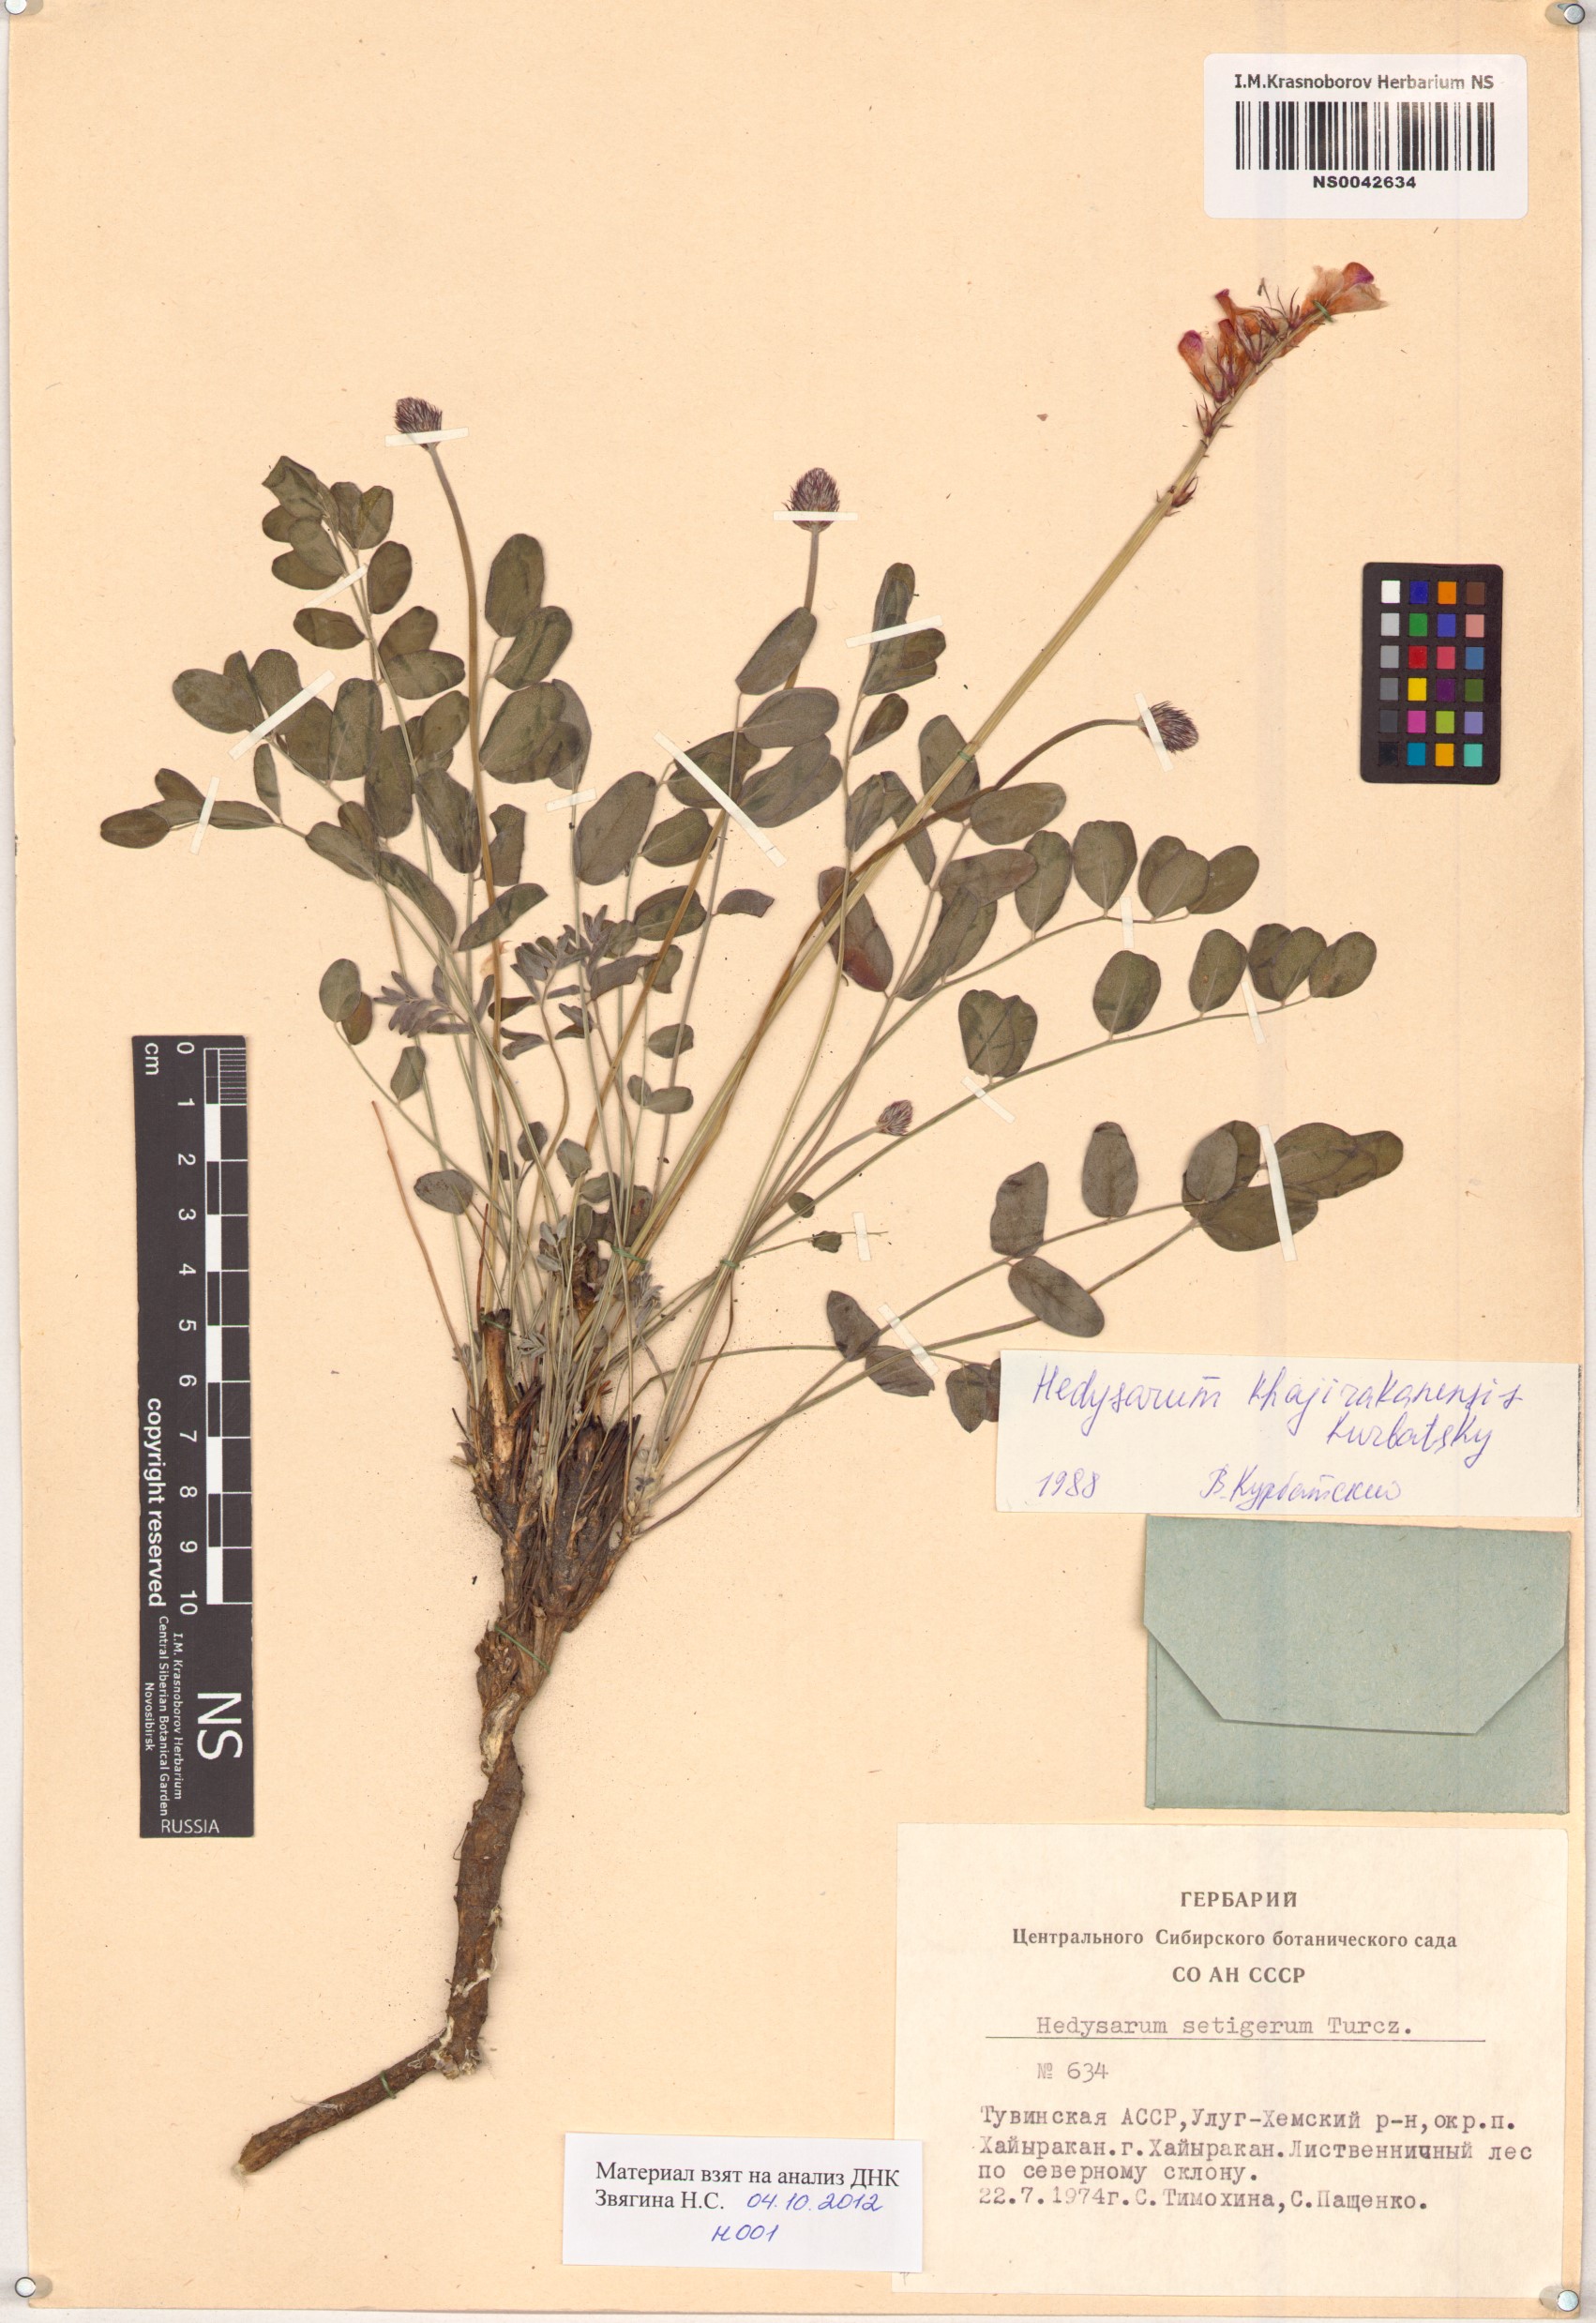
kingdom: Plantae
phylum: Tracheophyta
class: Magnoliopsida
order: Fabales
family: Fabaceae
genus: Hedysarum
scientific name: Hedysarum setigerum
